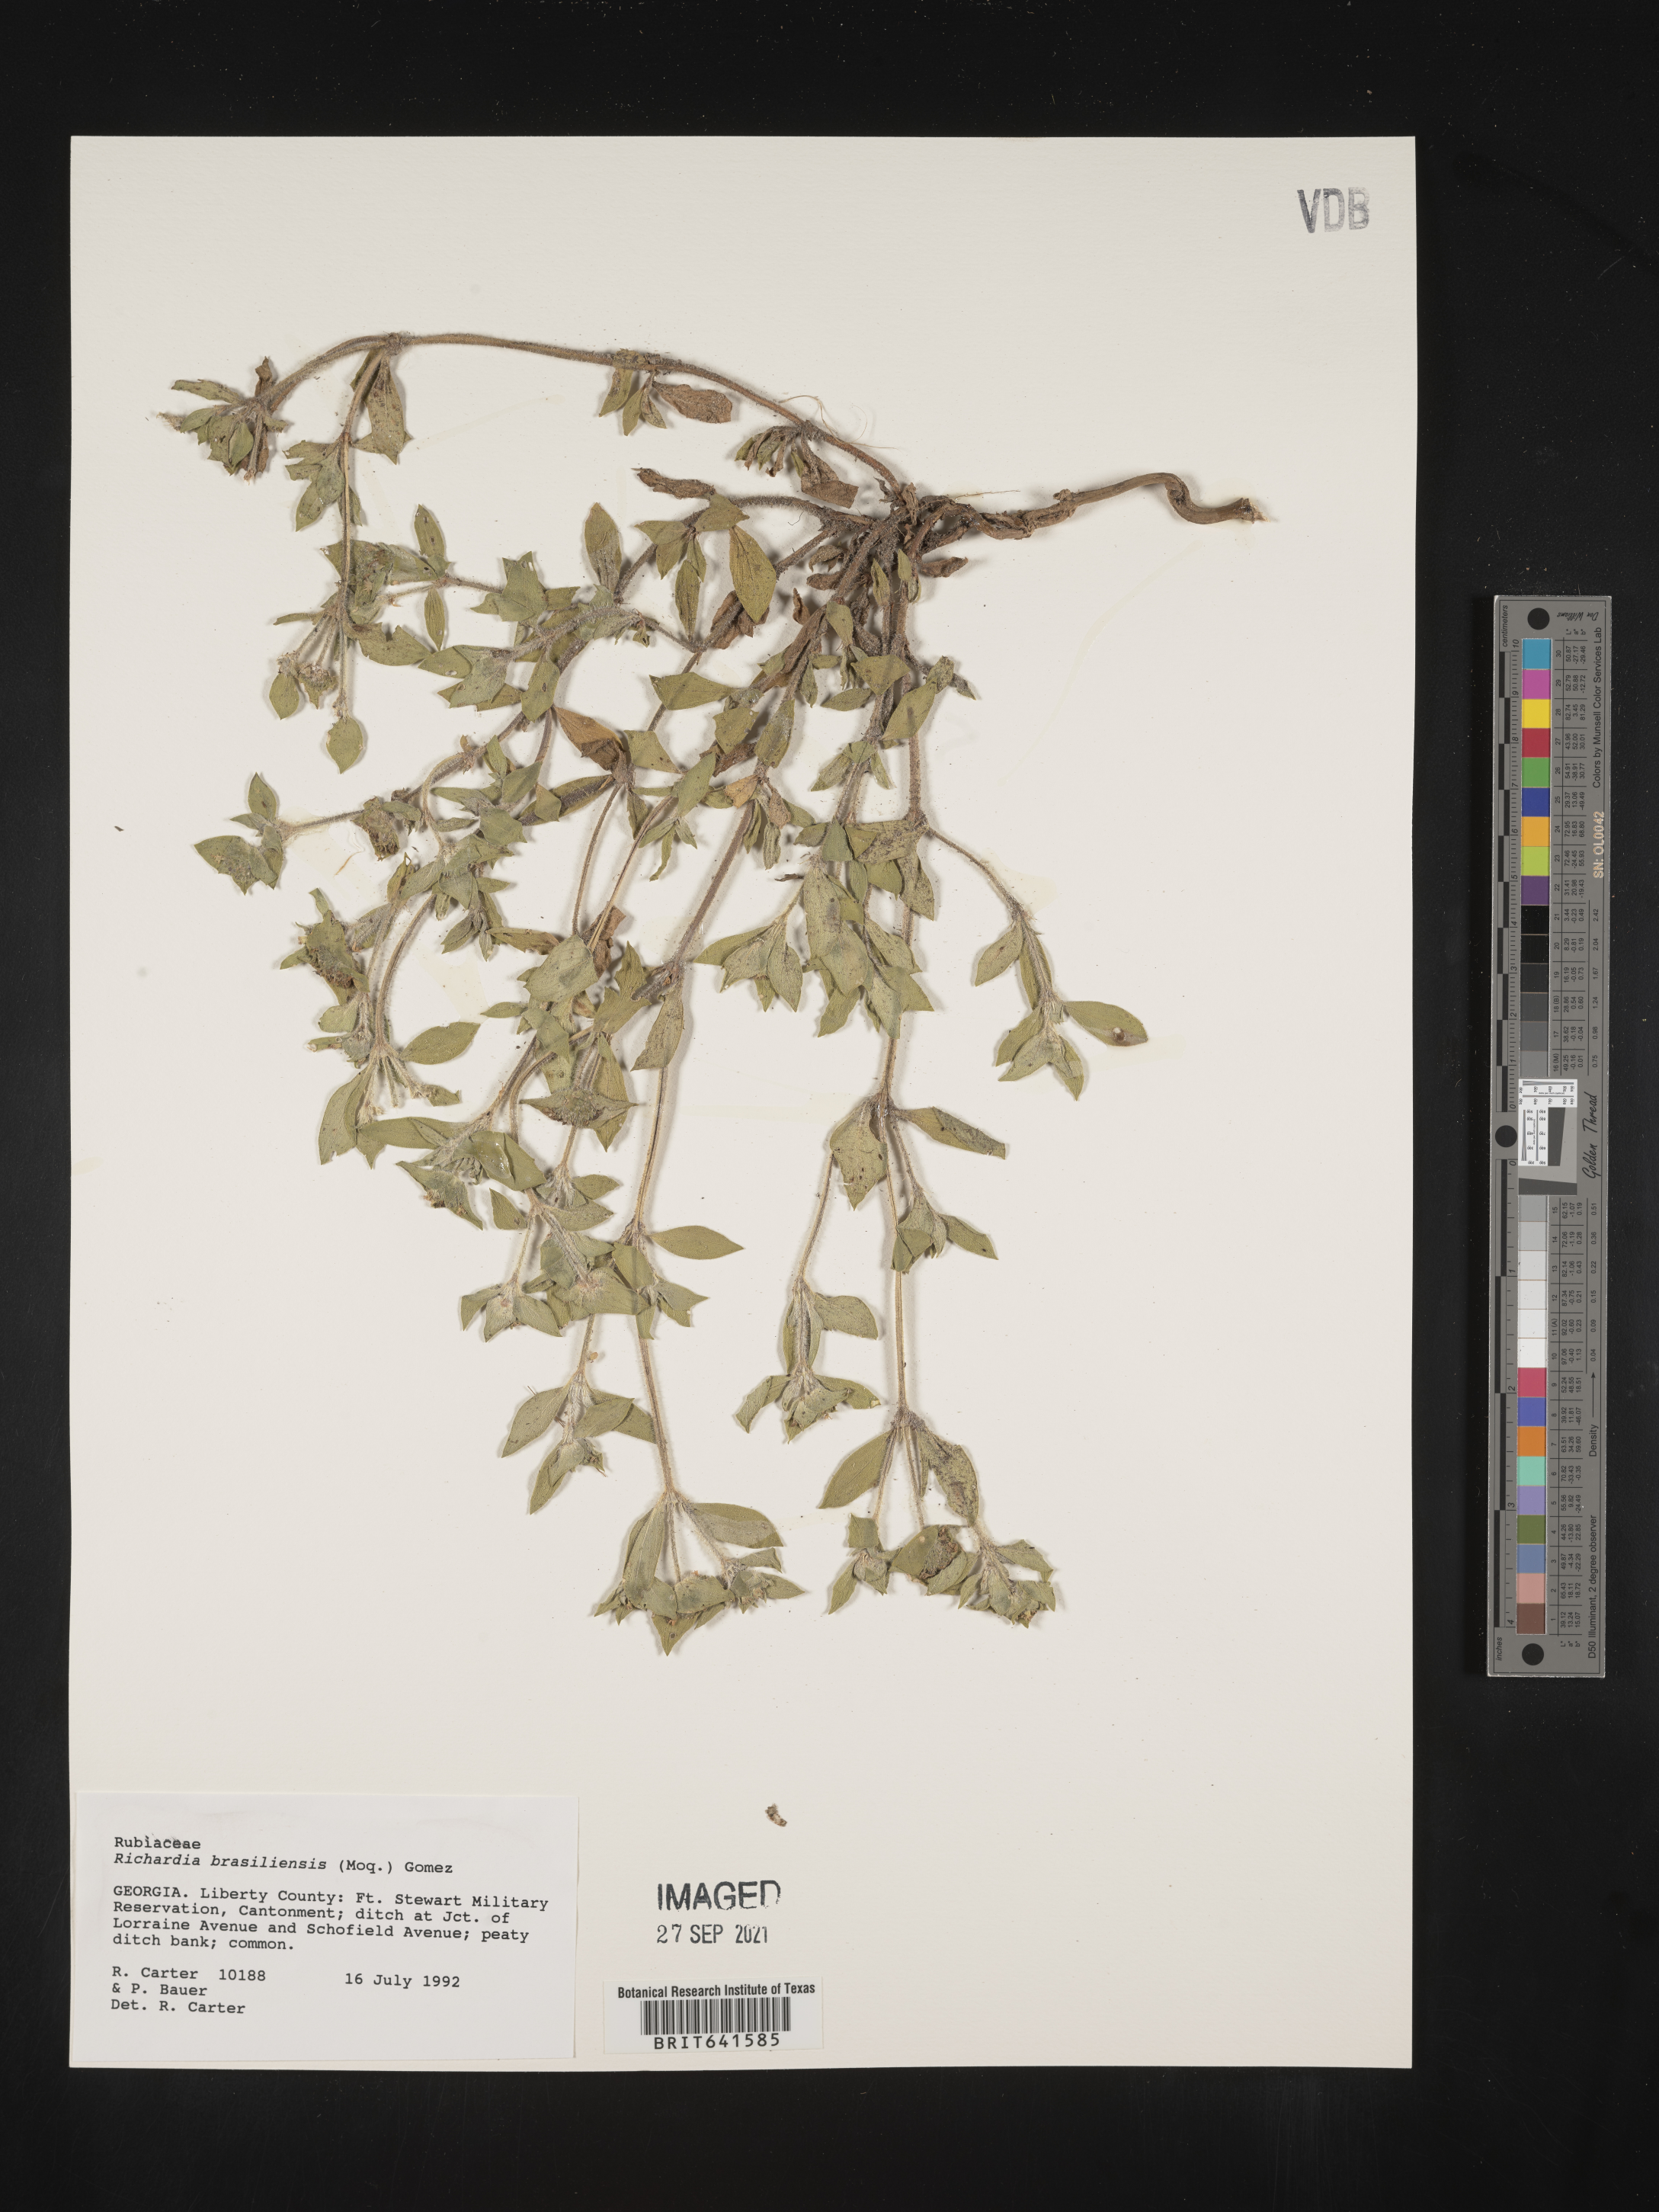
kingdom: Plantae
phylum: Tracheophyta
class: Magnoliopsida
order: Gentianales
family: Rubiaceae
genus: Richardia
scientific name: Richardia brasiliensis
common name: Tropical mexican clover
